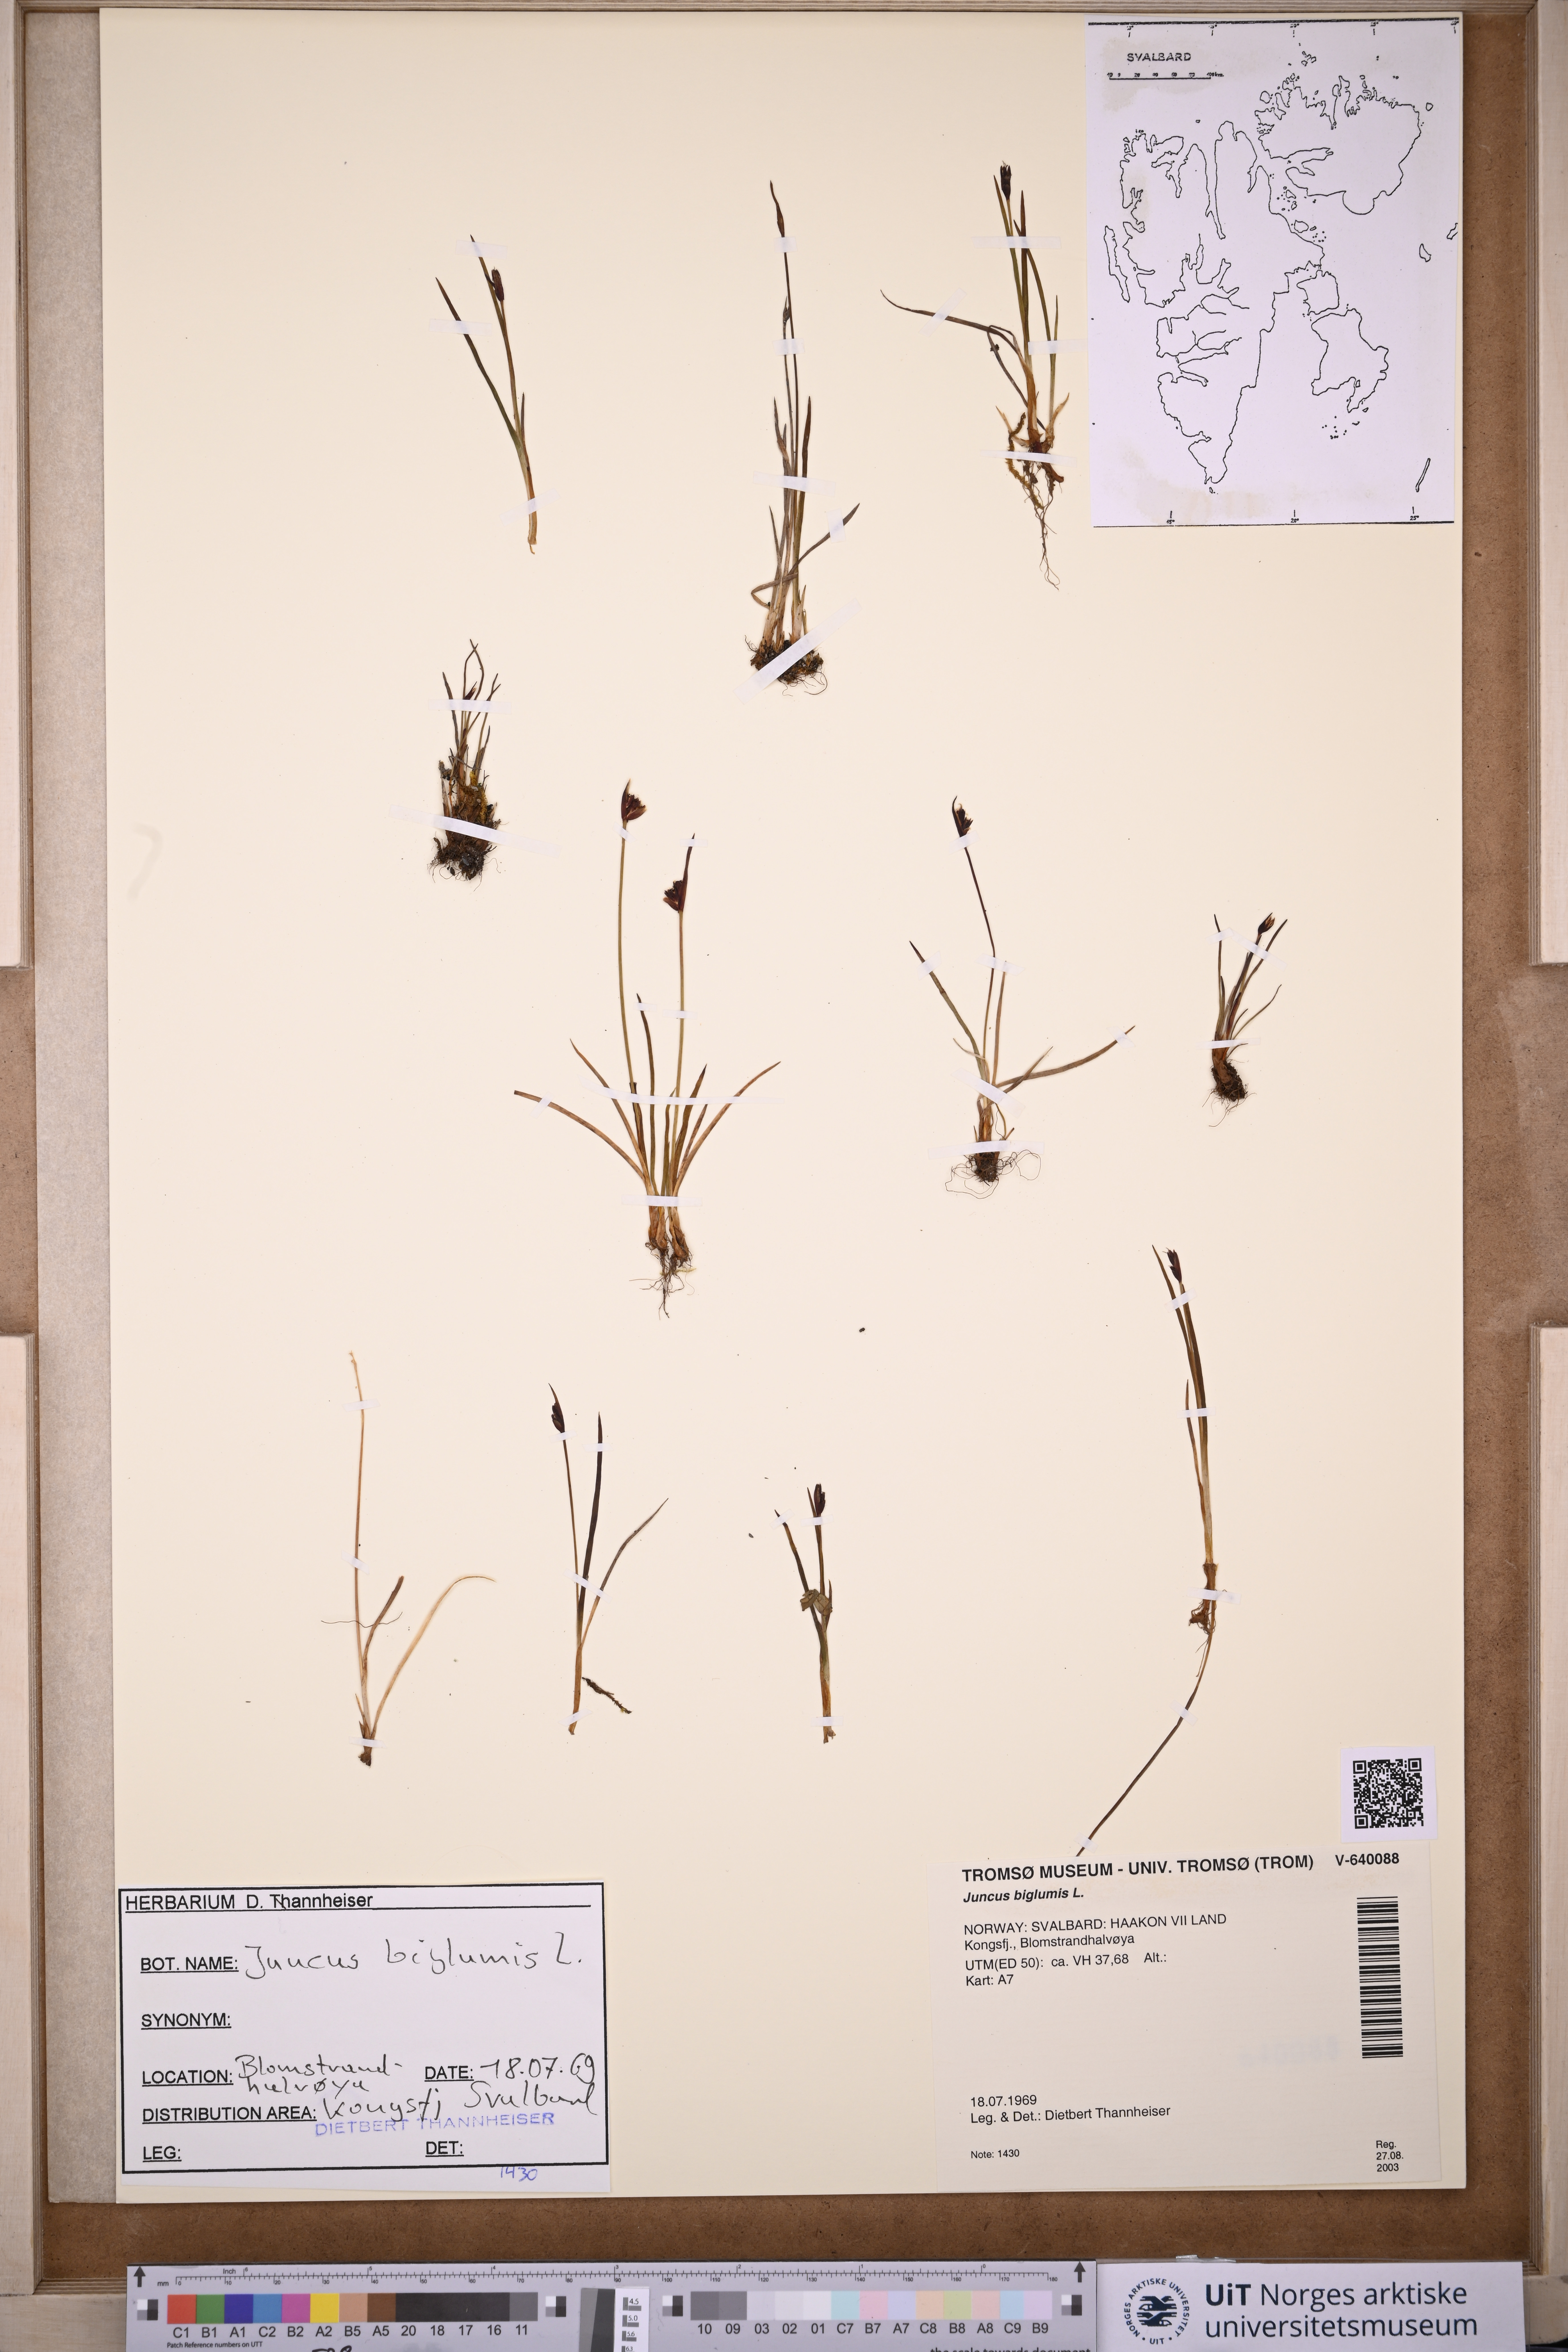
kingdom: Plantae
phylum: Tracheophyta
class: Liliopsida
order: Poales
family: Juncaceae
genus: Juncus
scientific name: Juncus biglumis
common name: Two-flowered rush
